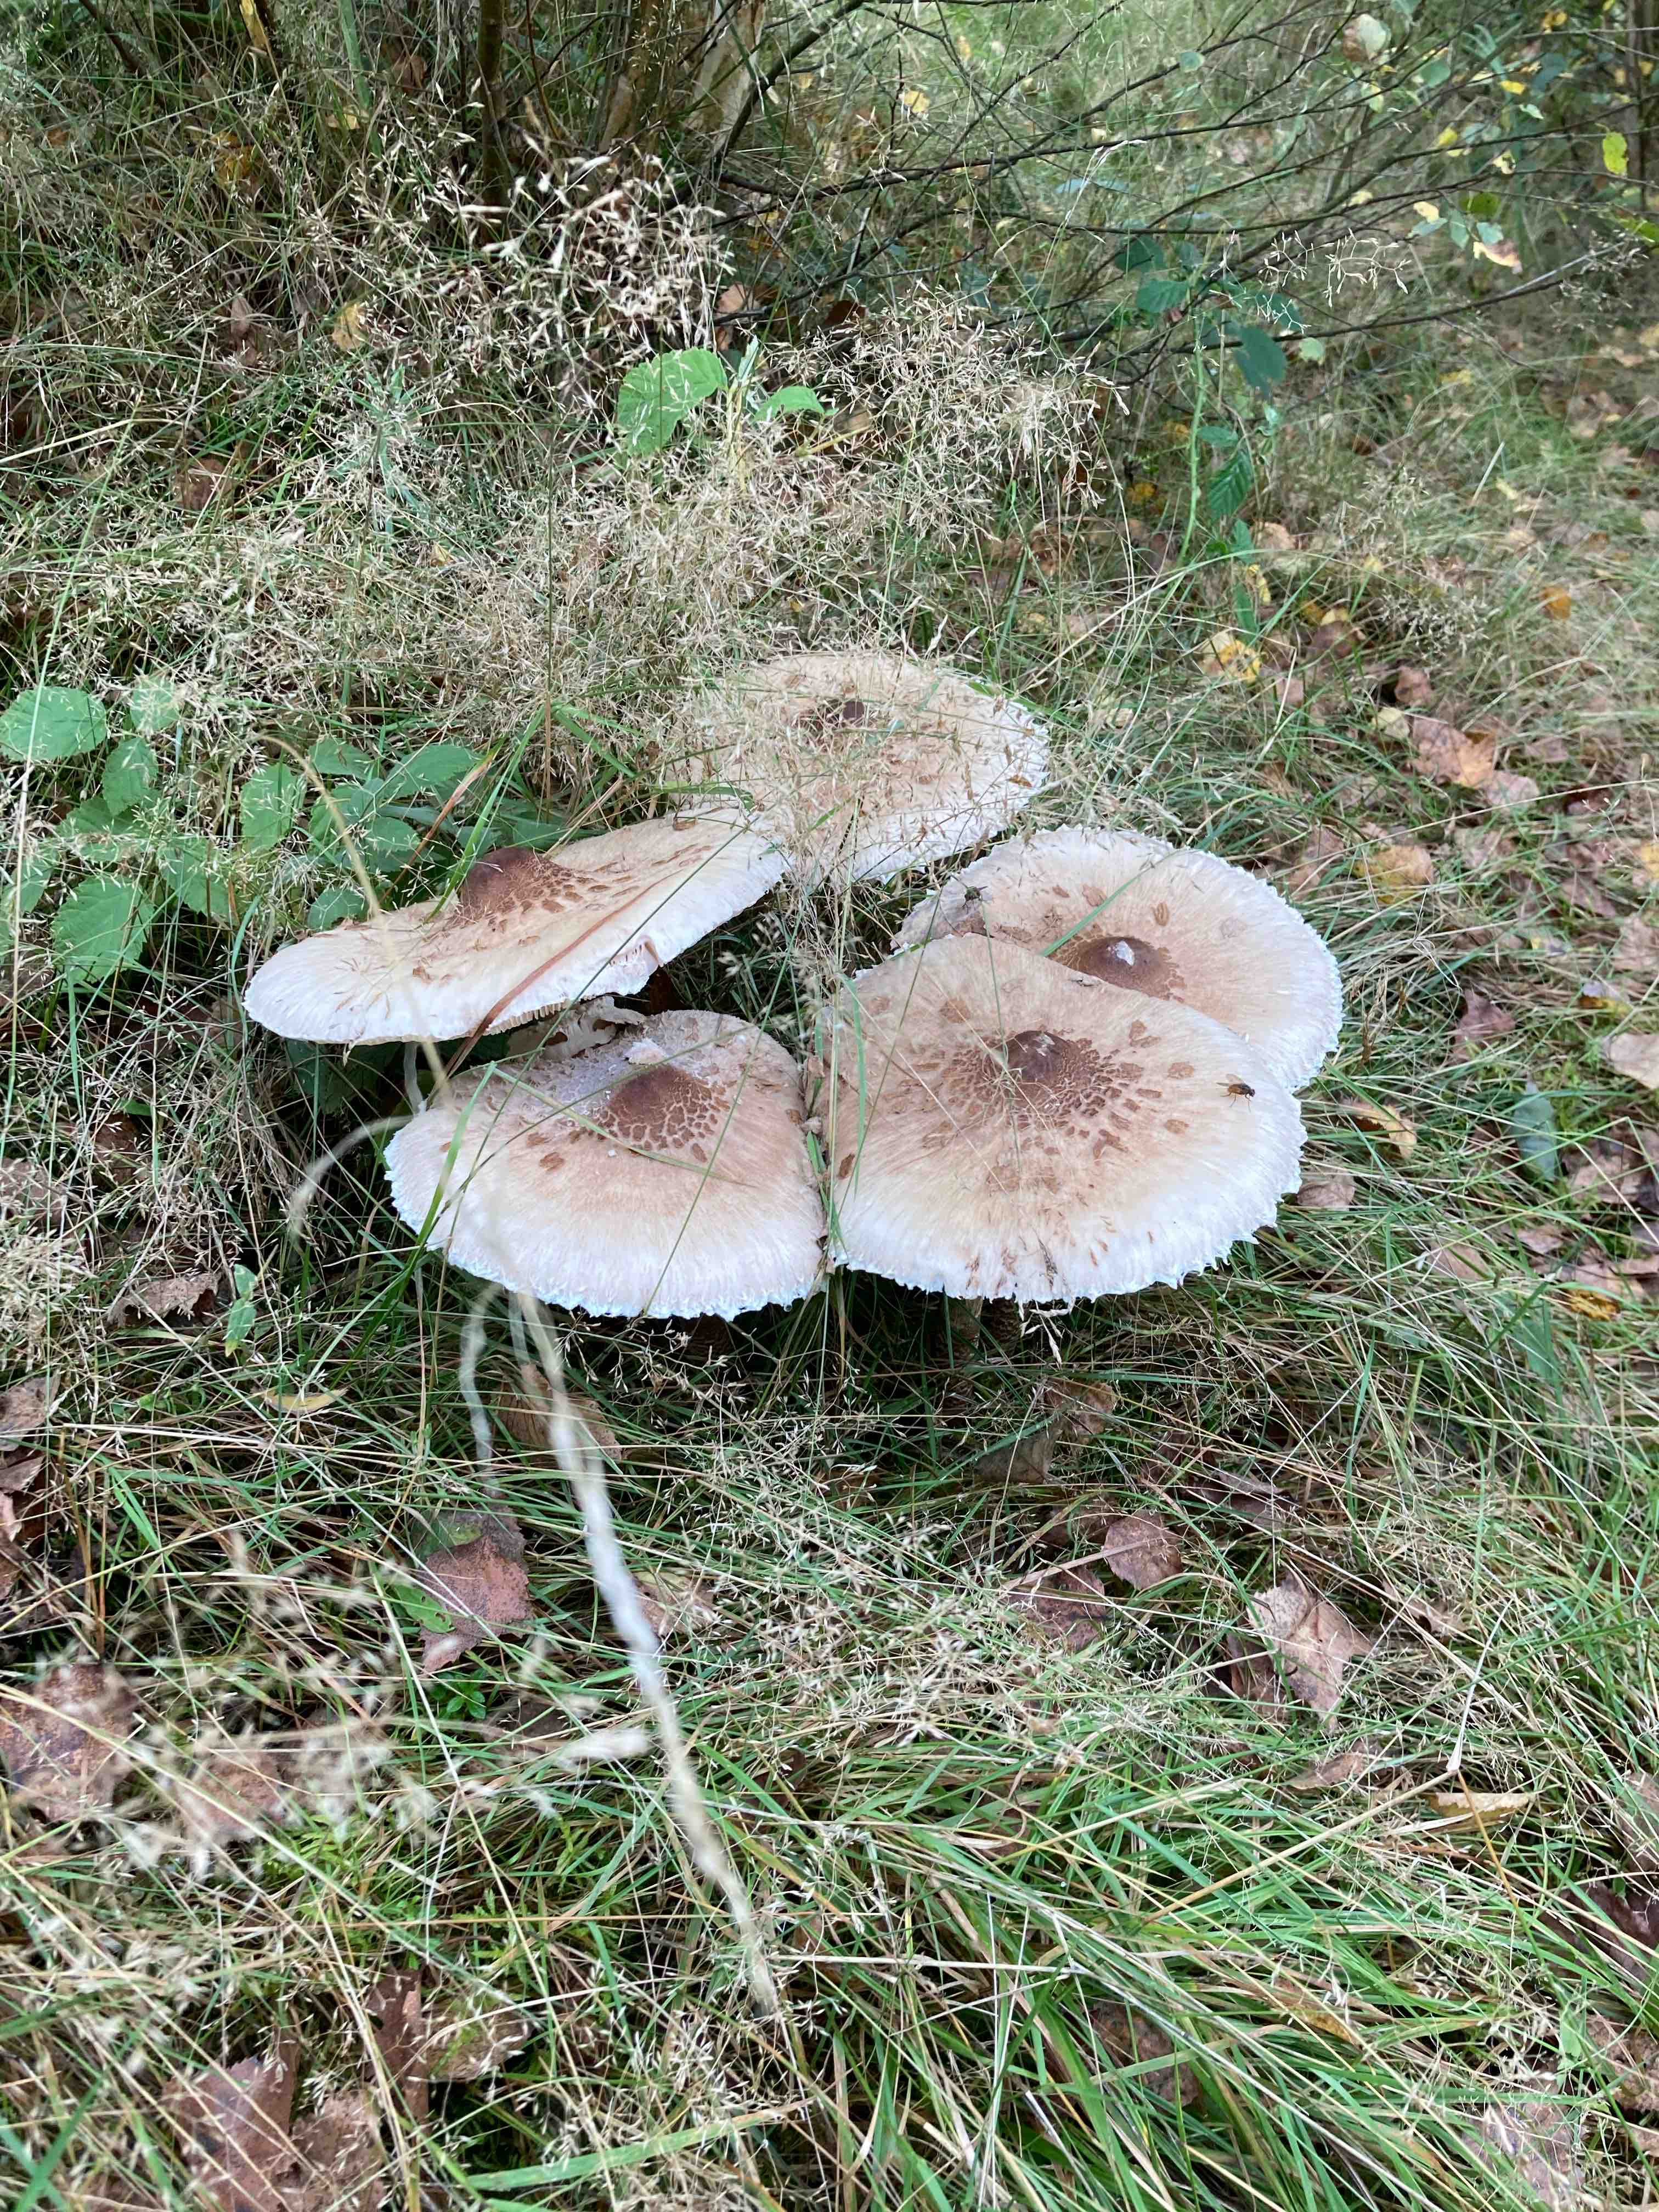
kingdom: Fungi
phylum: Basidiomycota
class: Agaricomycetes
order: Agaricales
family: Agaricaceae
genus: Macrolepiota
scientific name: Macrolepiota
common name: kæmpeparasolhat
